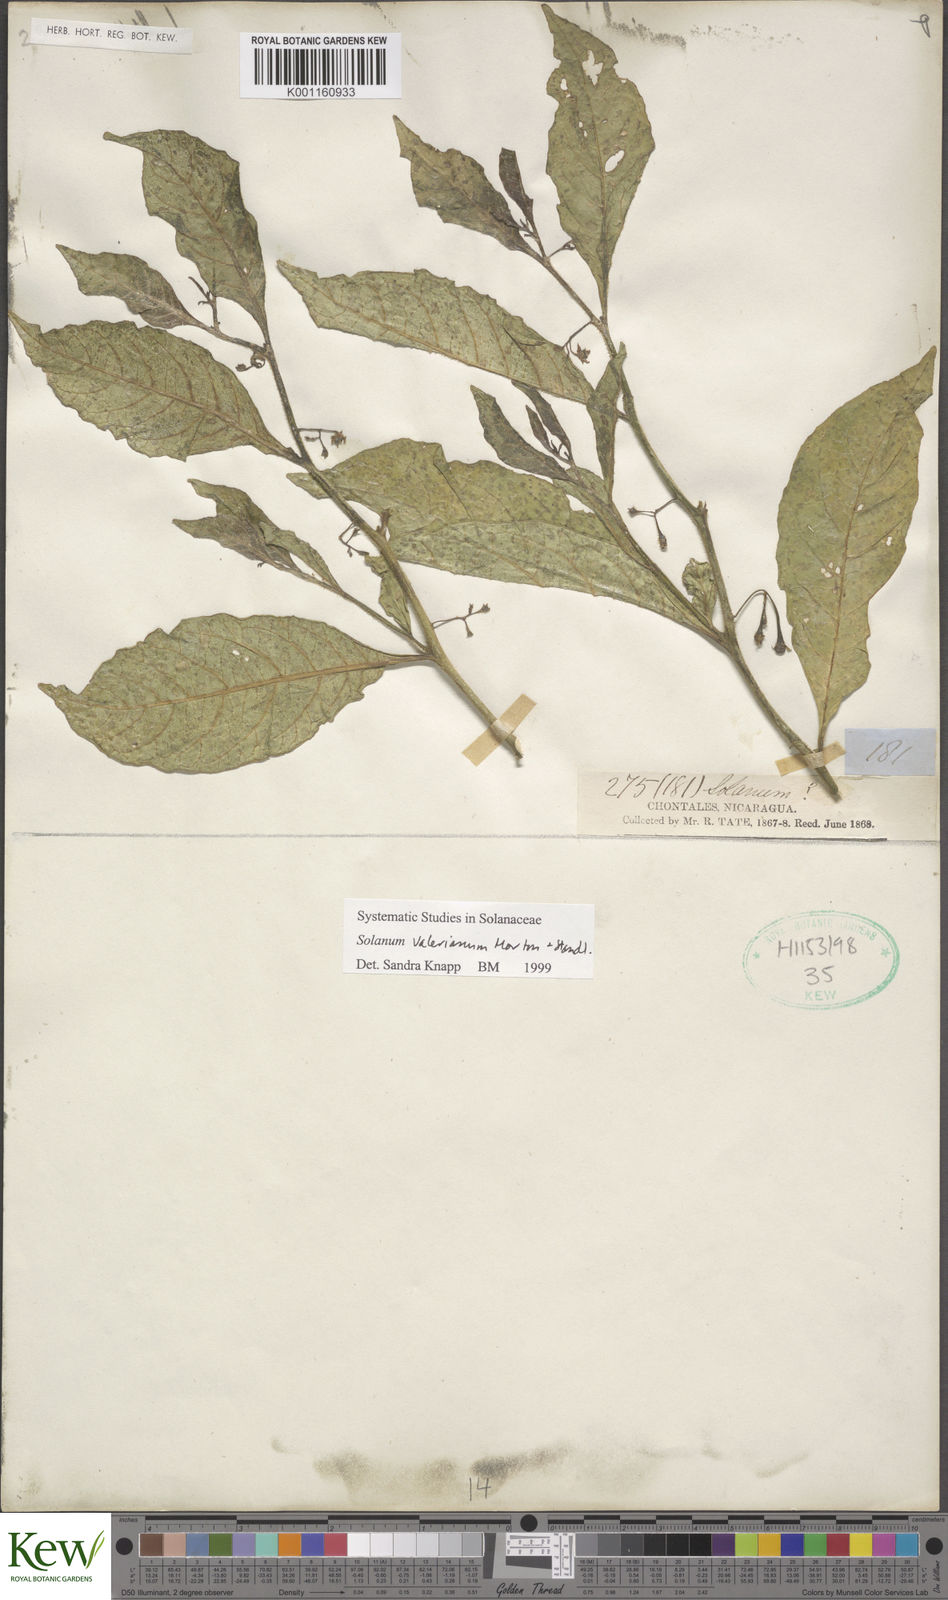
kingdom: Plantae
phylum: Tracheophyta
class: Magnoliopsida
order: Solanales
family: Solanaceae
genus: Solanum
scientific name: Solanum valerianum
